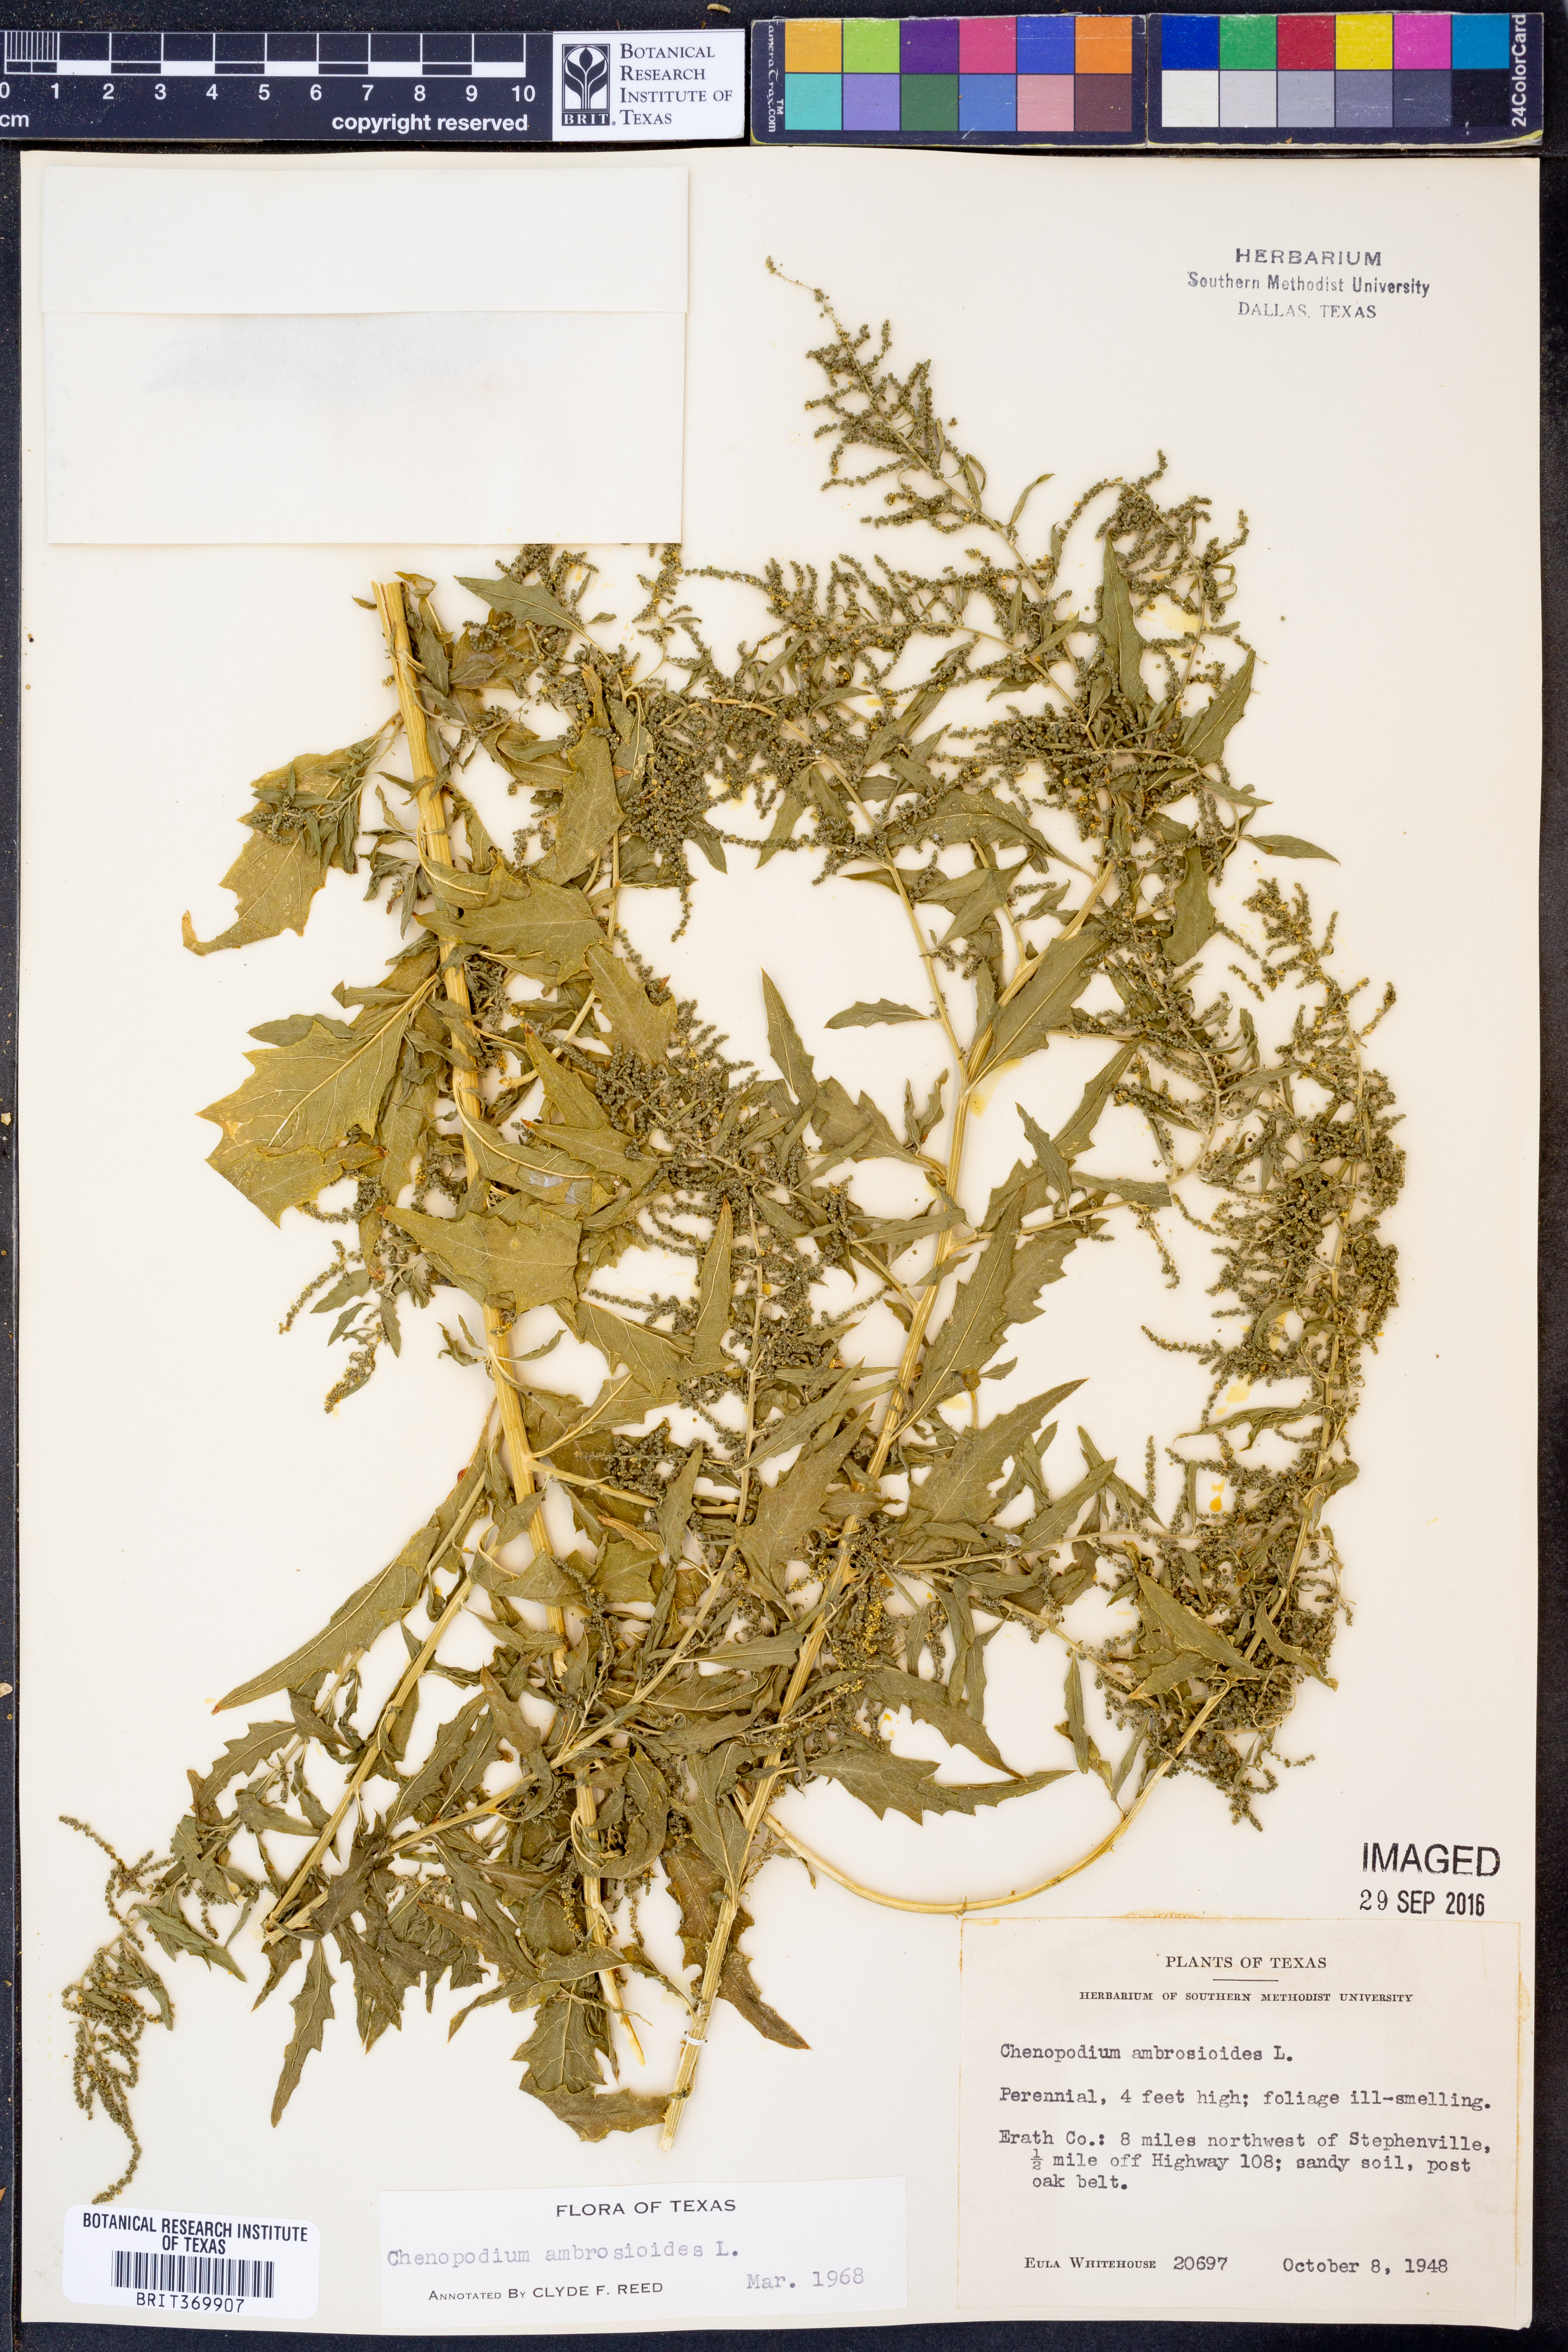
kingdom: Plantae
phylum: Tracheophyta
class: Magnoliopsida
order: Caryophyllales
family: Amaranthaceae
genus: Dysphania
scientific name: Dysphania ambrosioides
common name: Wormseed
